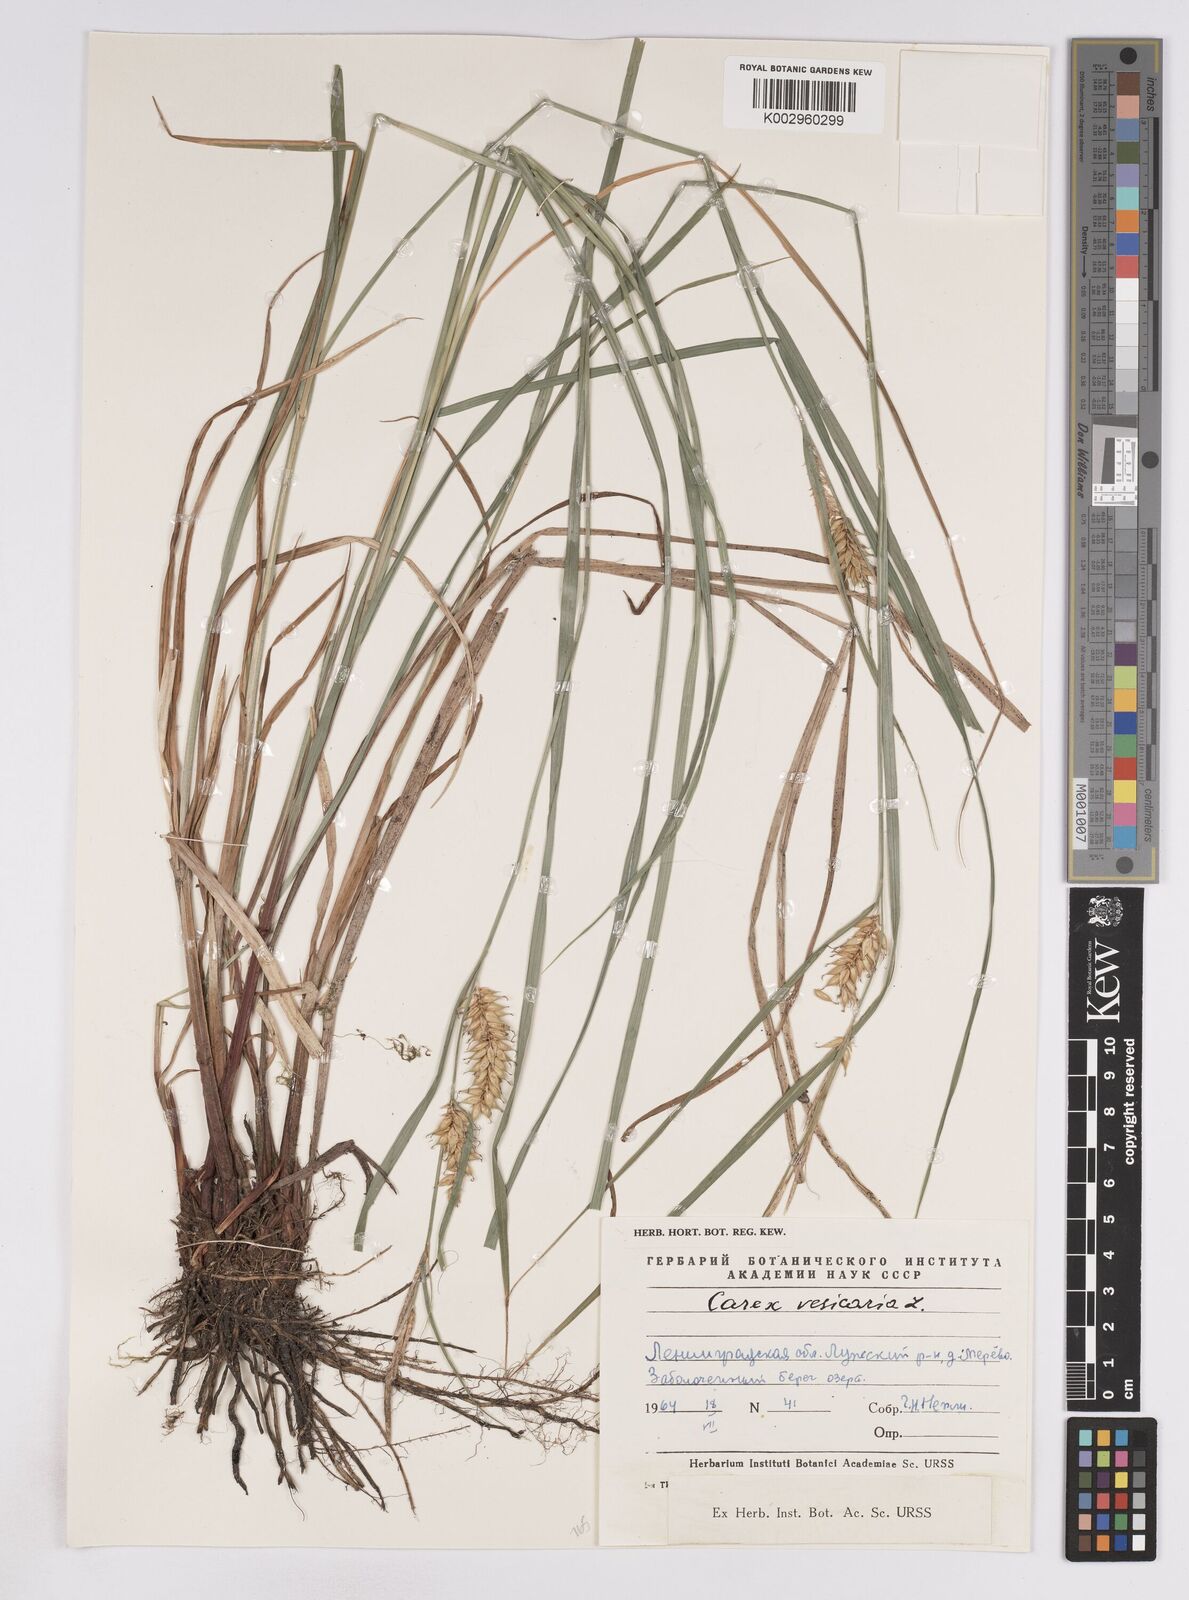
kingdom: Plantae
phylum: Tracheophyta
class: Liliopsida
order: Poales
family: Cyperaceae
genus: Carex
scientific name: Carex vesicaria
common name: Bladder-sedge
